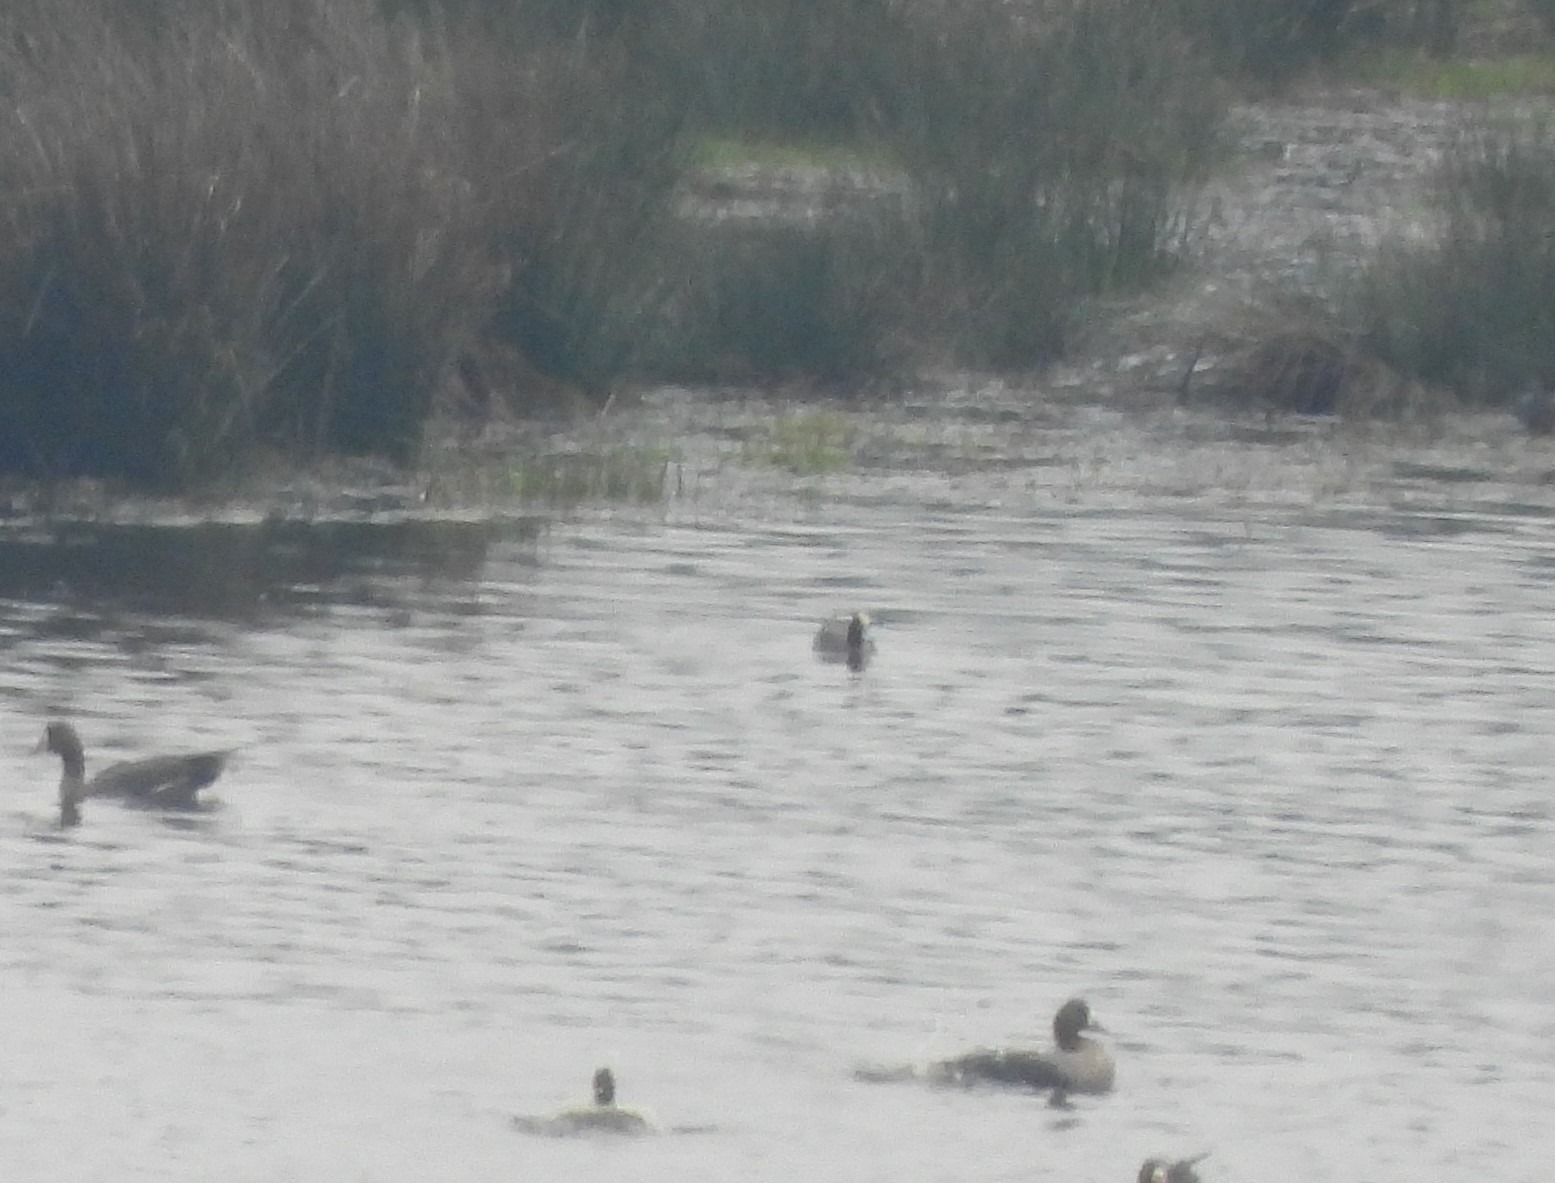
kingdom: Animalia
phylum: Chordata
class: Aves
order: Anseriformes
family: Anatidae
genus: Mareca
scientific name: Mareca penelope
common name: Pibeand
